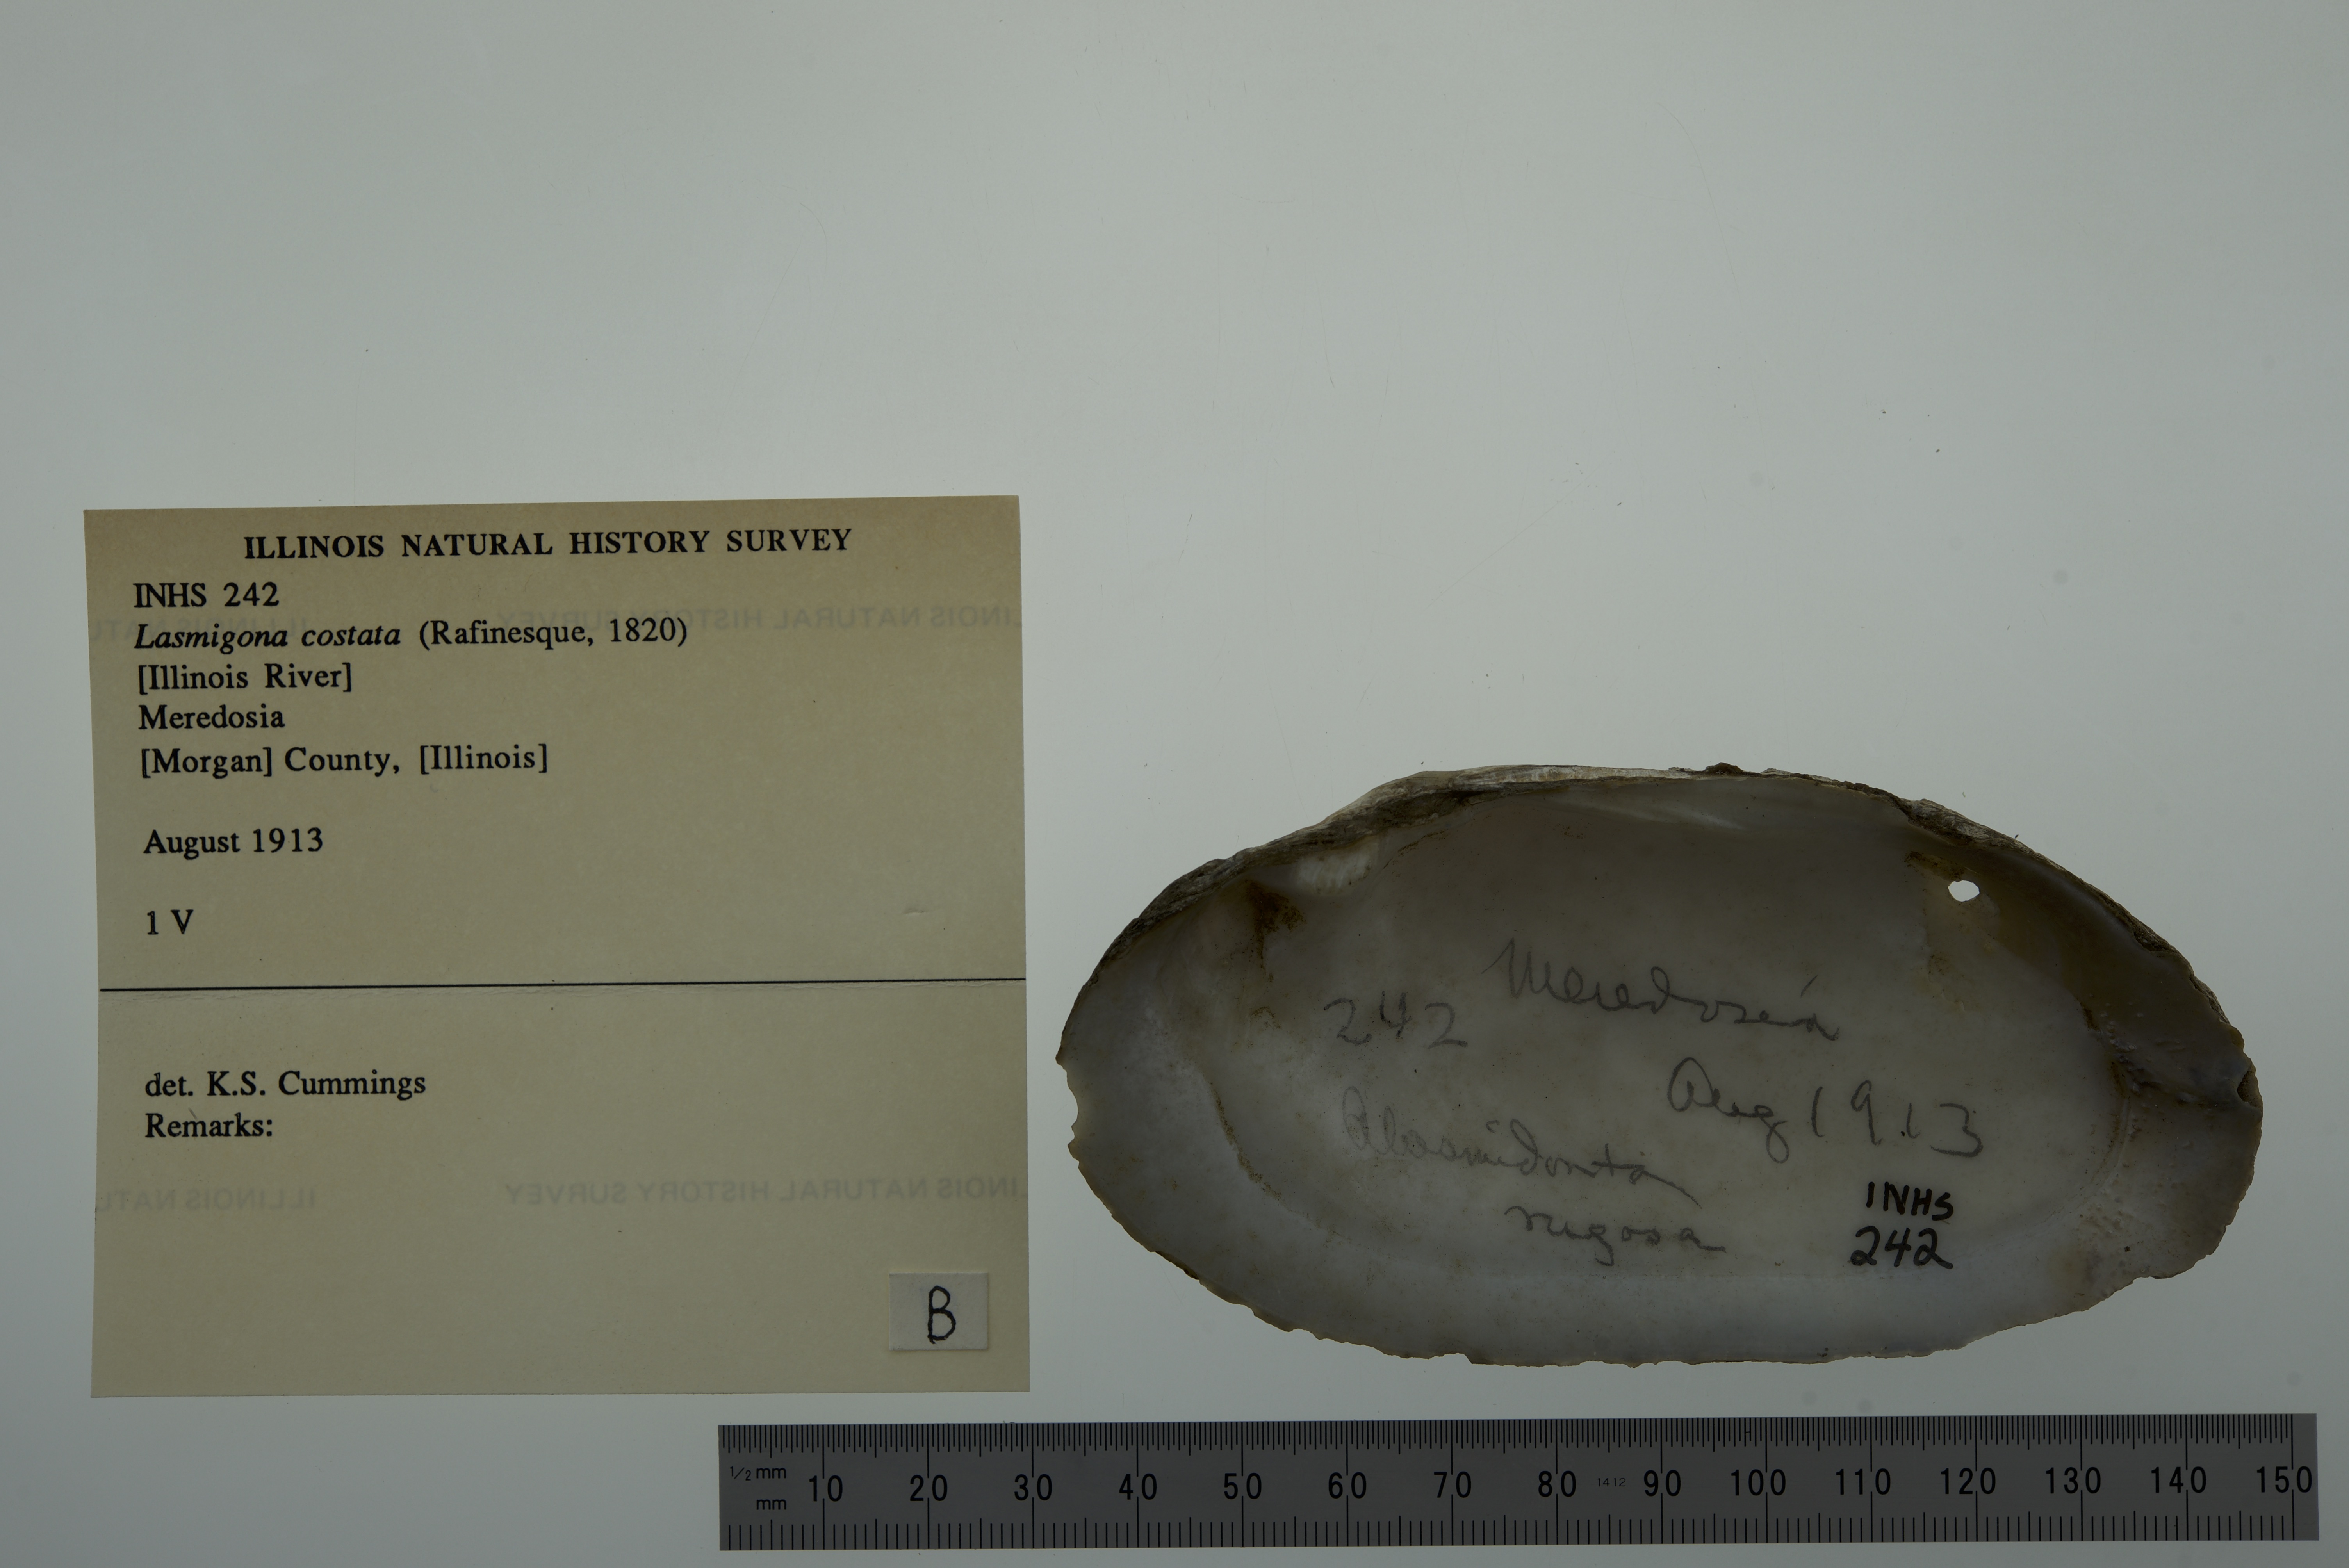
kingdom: Animalia
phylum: Mollusca
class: Bivalvia
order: Unionida
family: Unionidae
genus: Lasmigona
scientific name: Lasmigona costata
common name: Flutedshell
